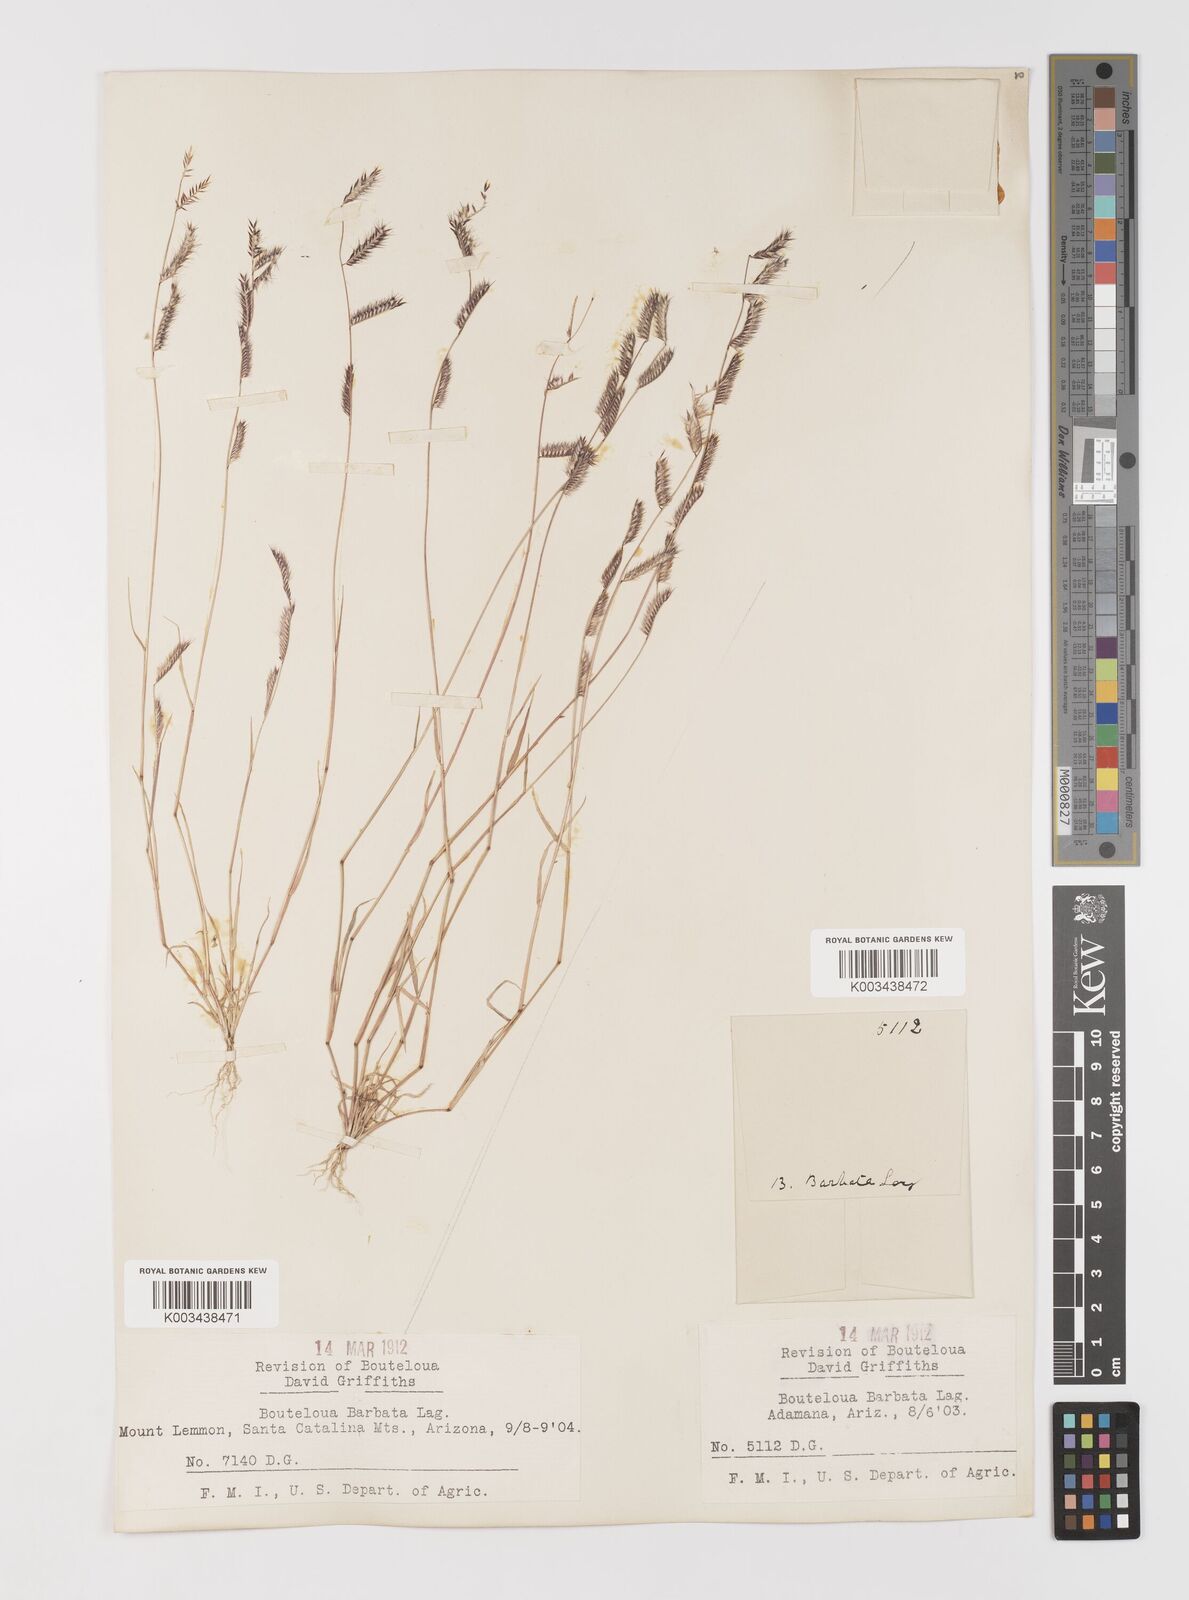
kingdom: Plantae
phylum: Tracheophyta
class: Liliopsida
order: Poales
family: Poaceae
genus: Bouteloua
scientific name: Bouteloua
